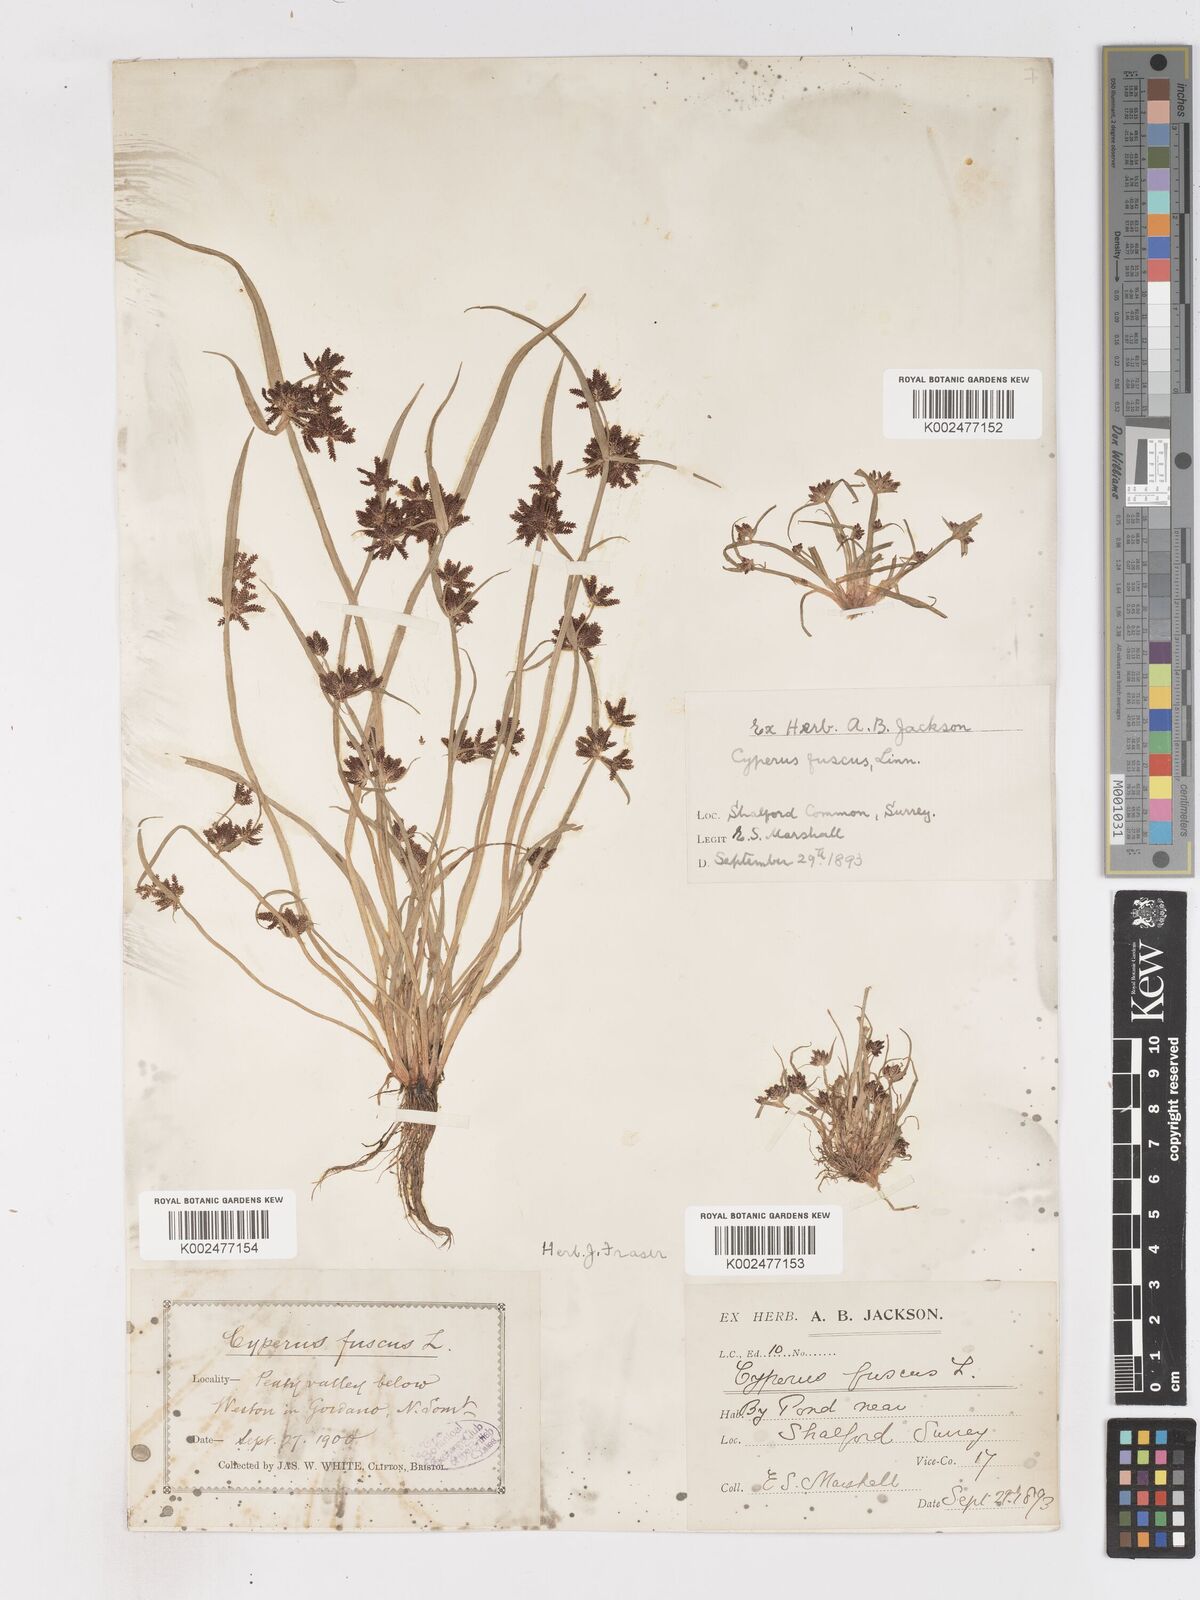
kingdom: Plantae
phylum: Tracheophyta
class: Liliopsida
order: Poales
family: Cyperaceae
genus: Cyperus
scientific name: Cyperus fuscus
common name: Brown galingale
